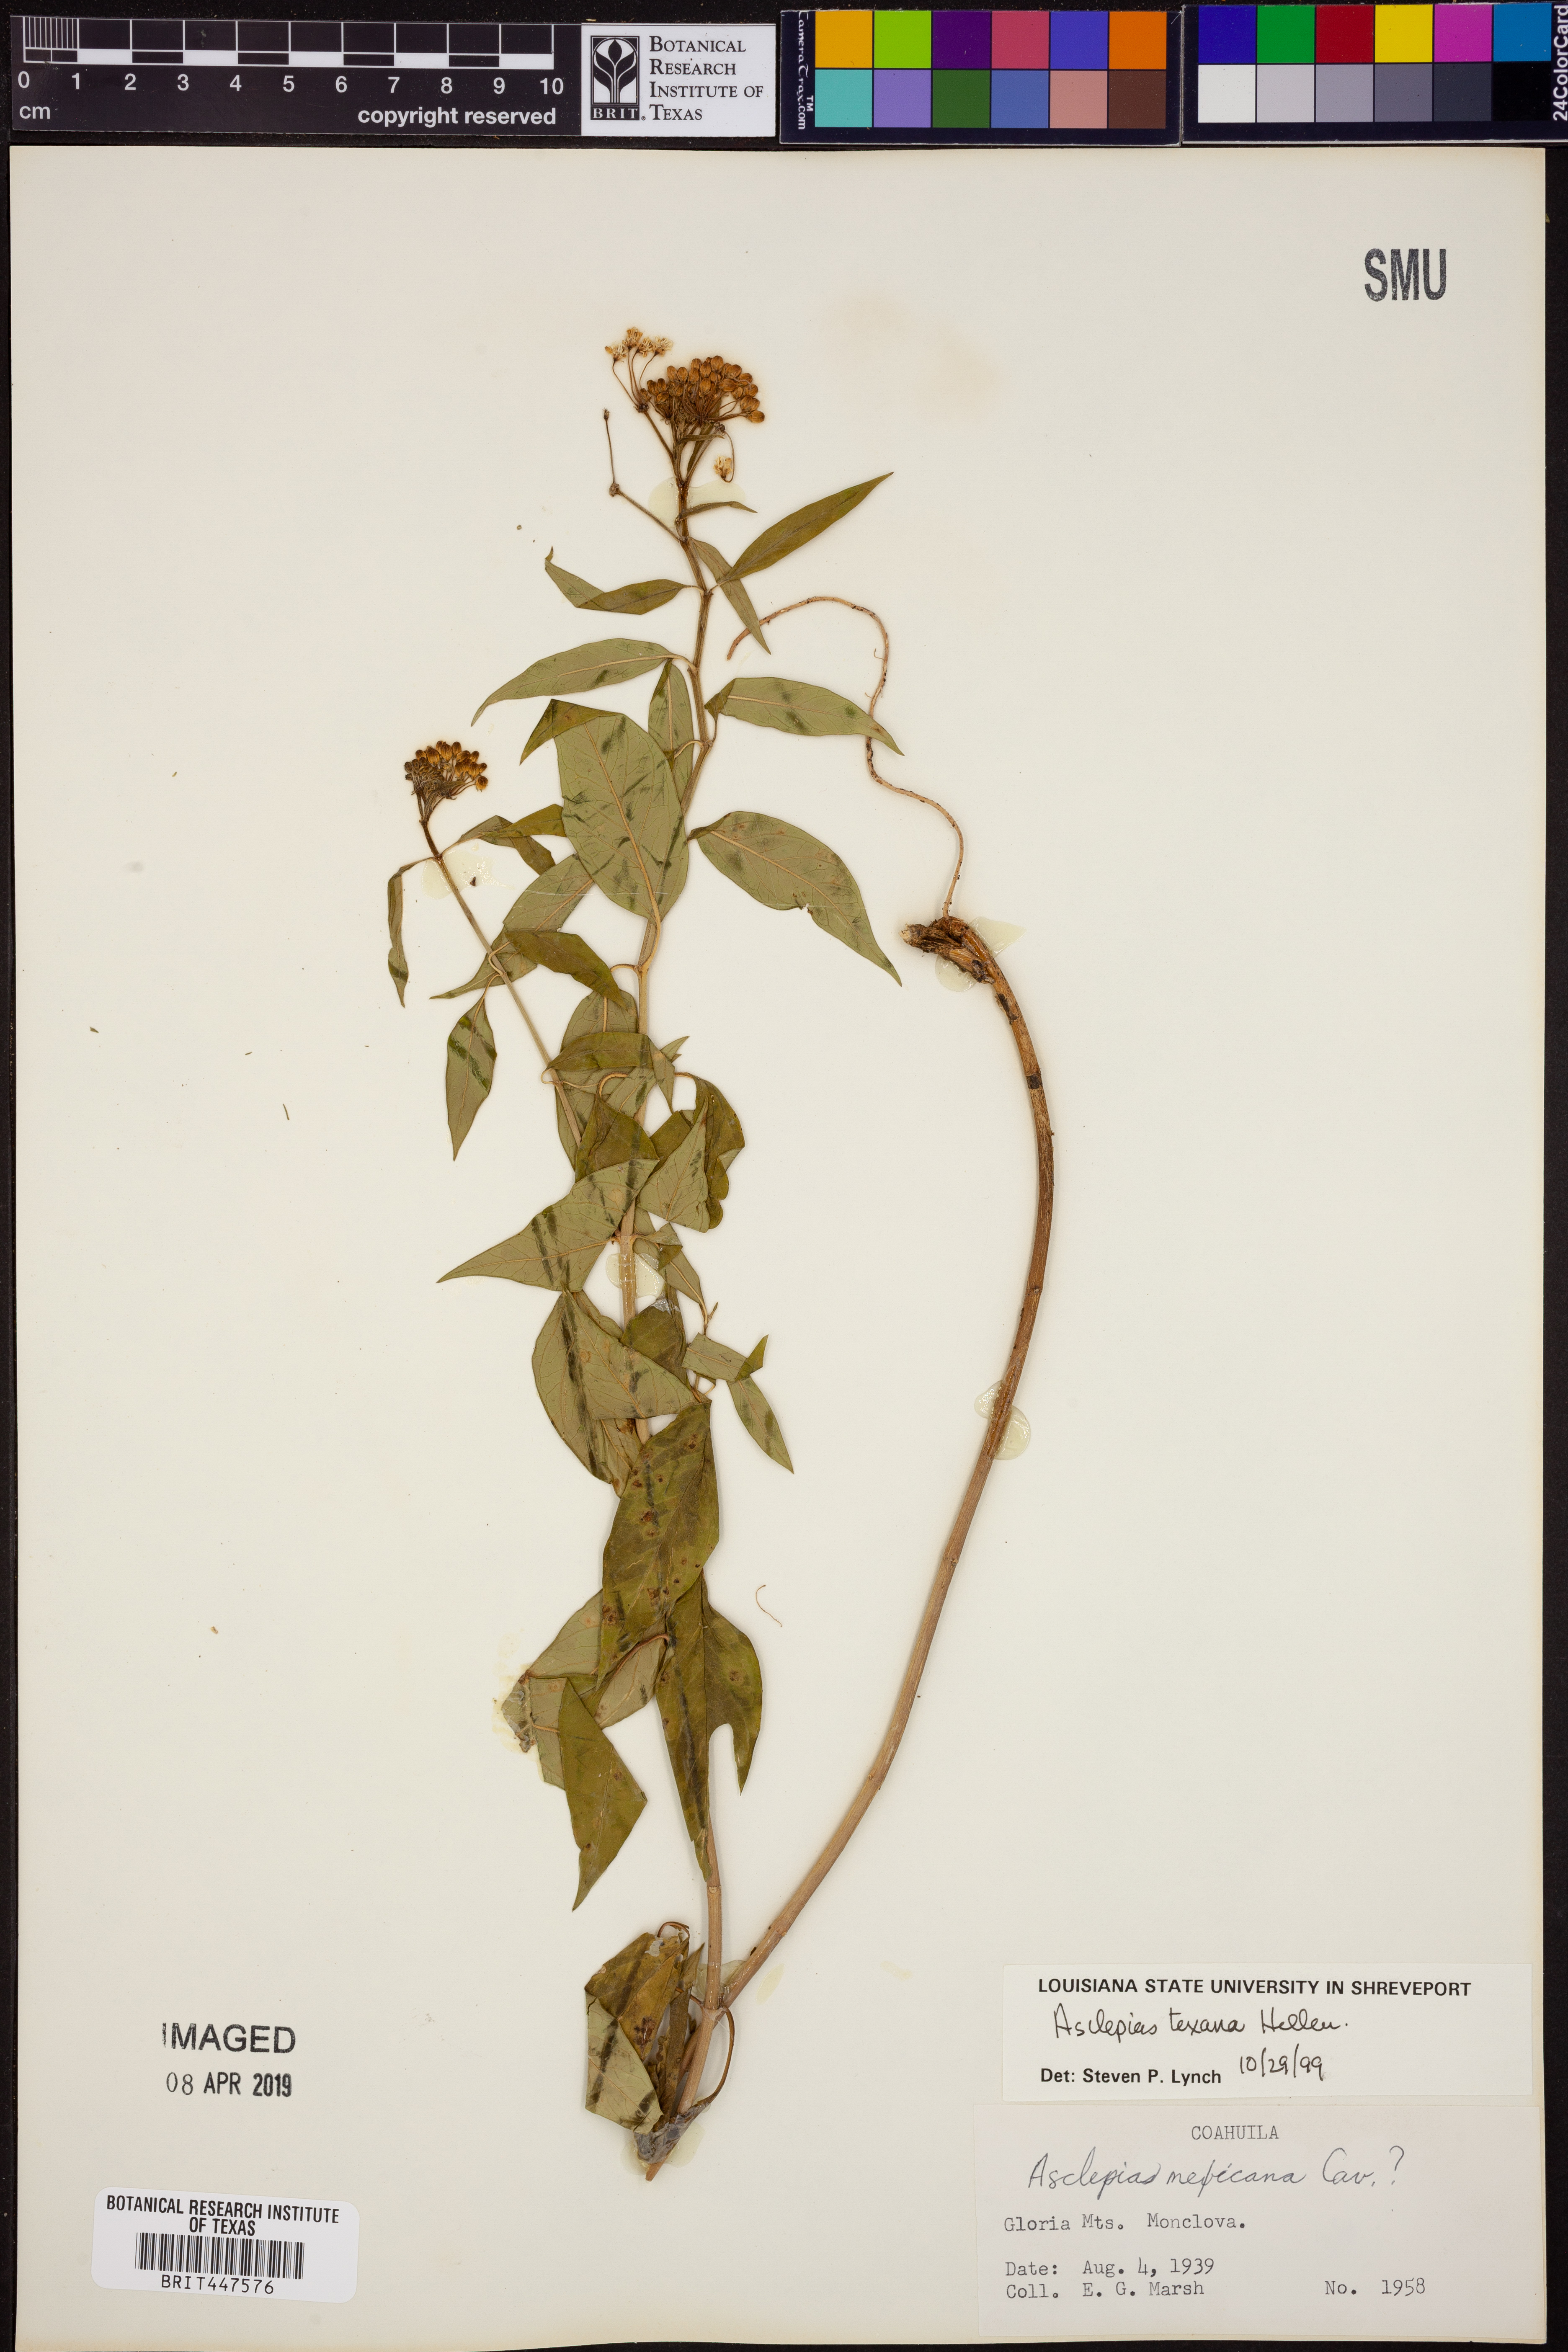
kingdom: Plantae
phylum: Tracheophyta
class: Magnoliopsida
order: Gentianales
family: Apocynaceae
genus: Asclepias
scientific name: Asclepias texana
